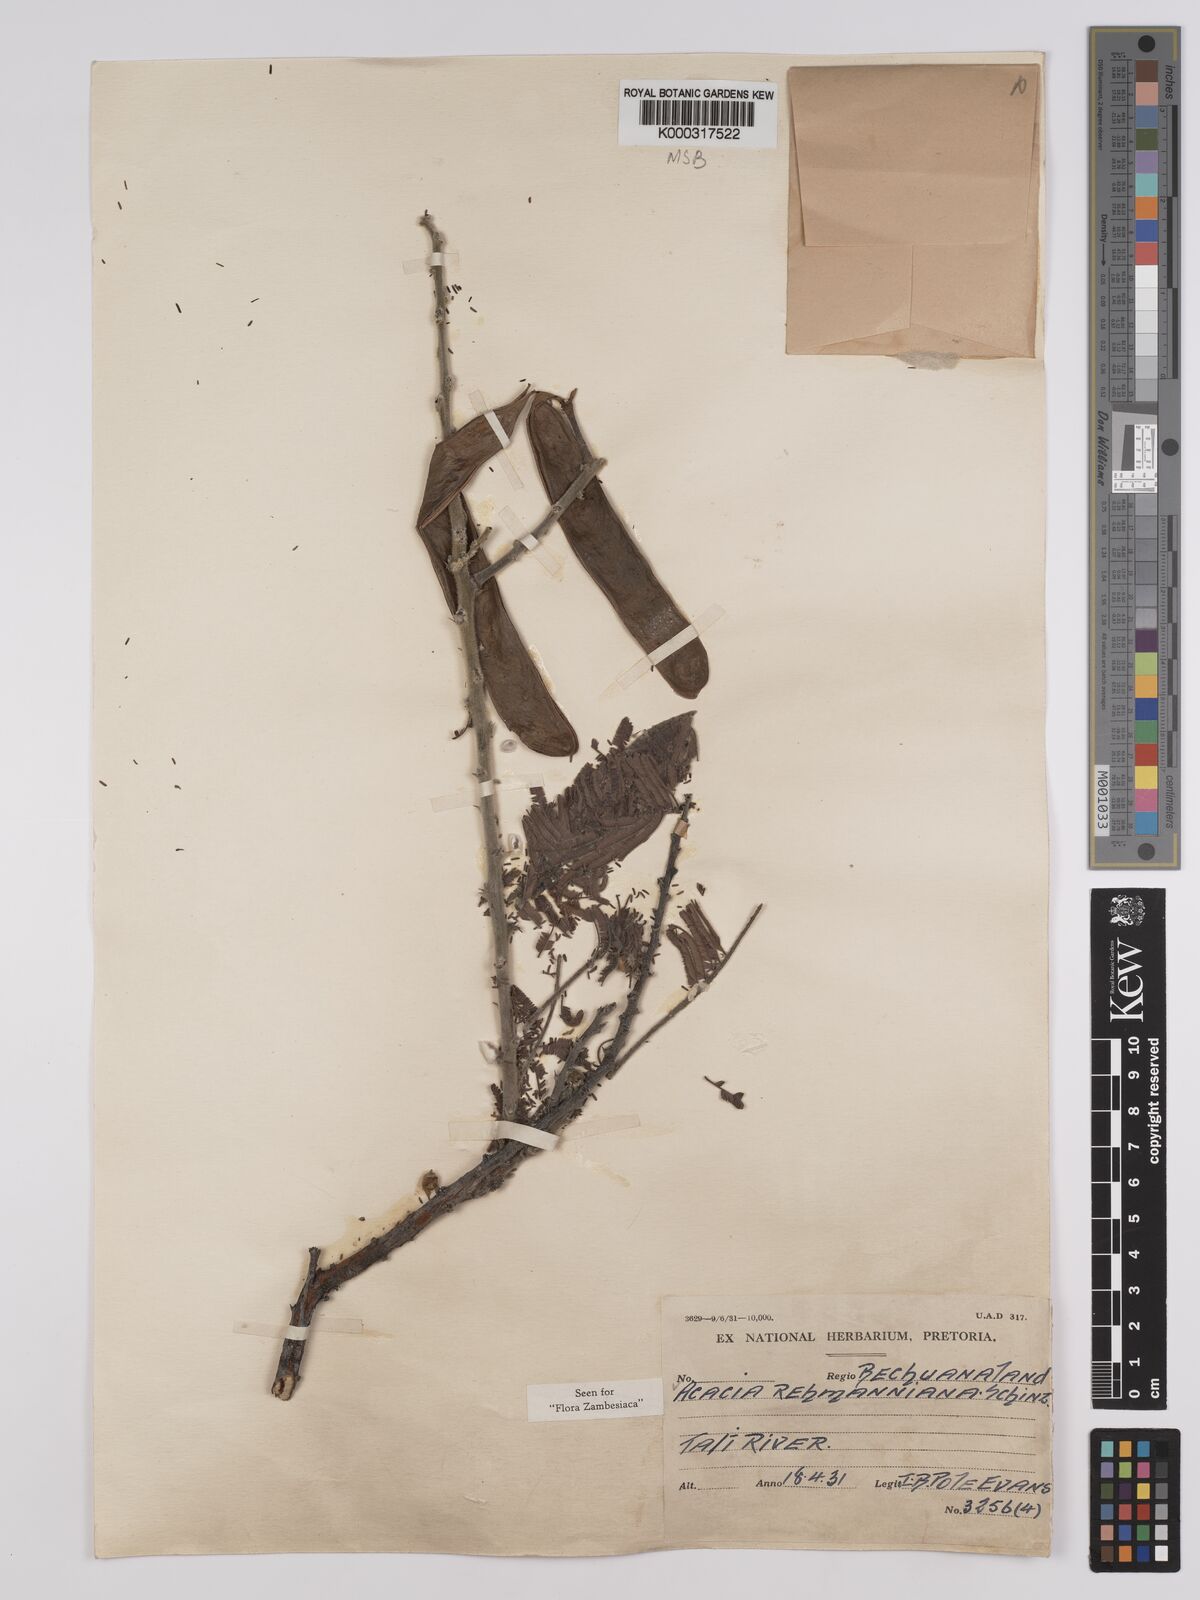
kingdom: Plantae
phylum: Tracheophyta
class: Magnoliopsida
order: Fabales
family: Fabaceae
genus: Vachellia
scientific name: Vachellia rehmanniana
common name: Silky thorn
